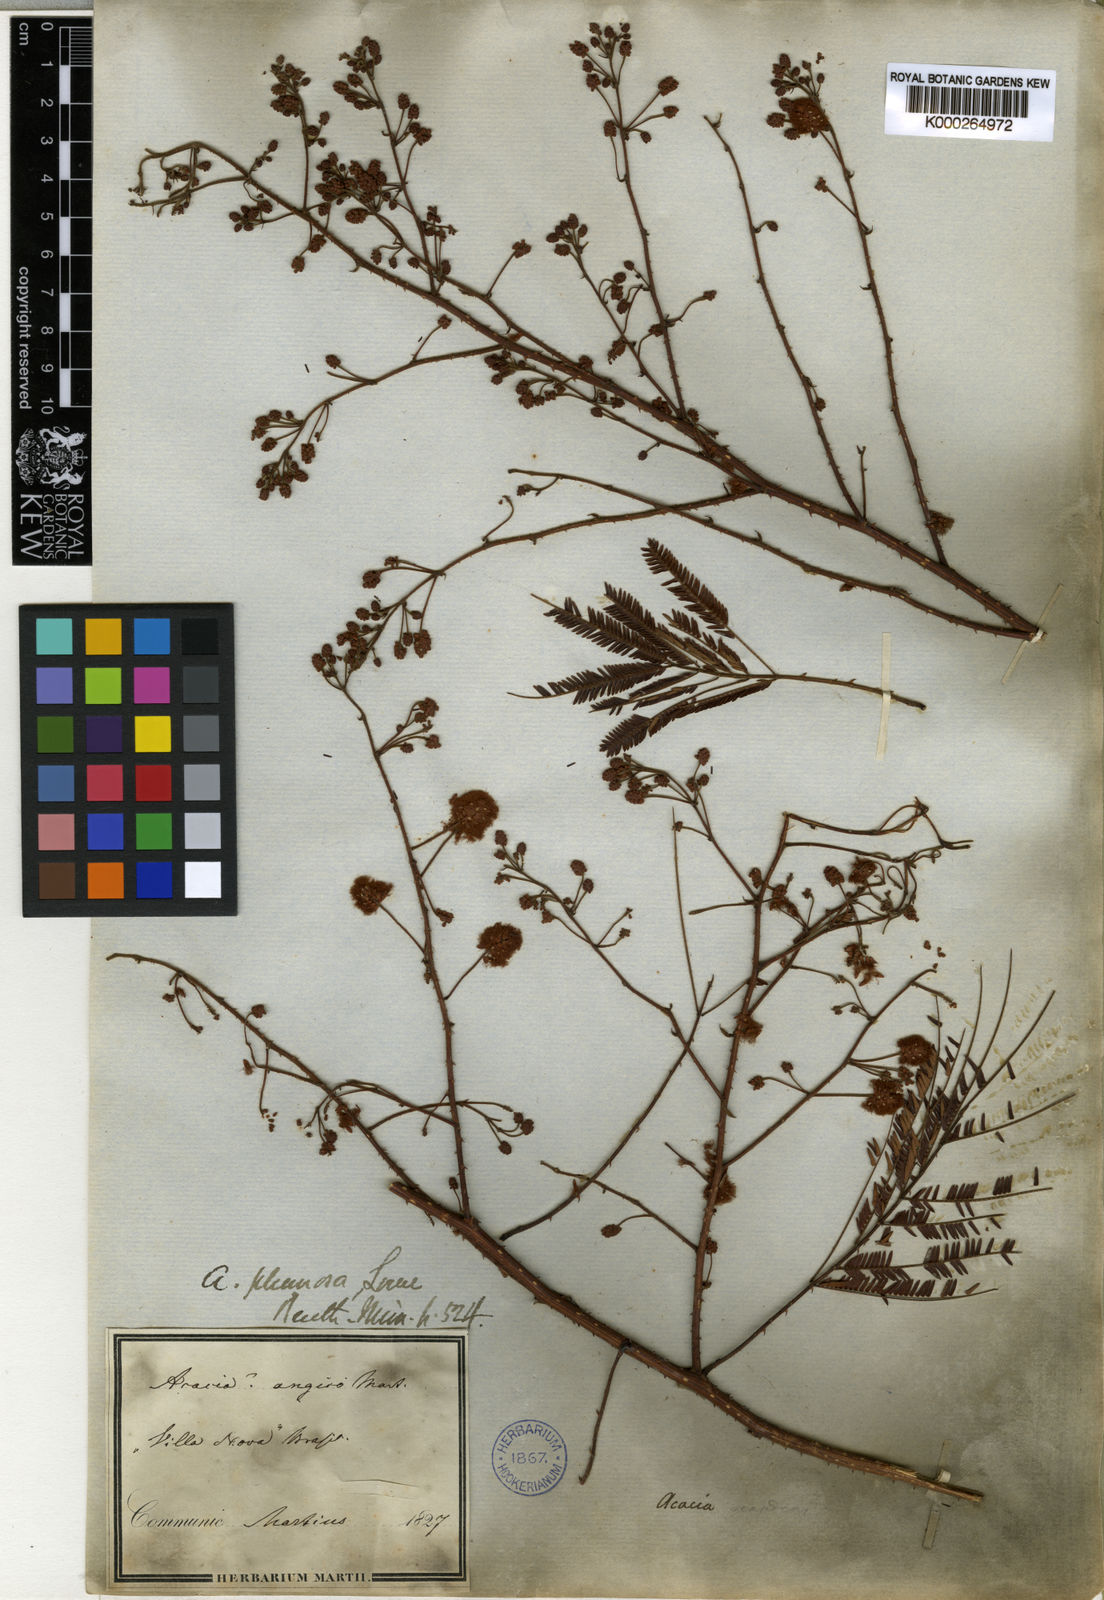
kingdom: Plantae
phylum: Tracheophyta
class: Magnoliopsida
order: Fabales
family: Fabaceae
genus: Senegalia
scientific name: Senegalia lowei
